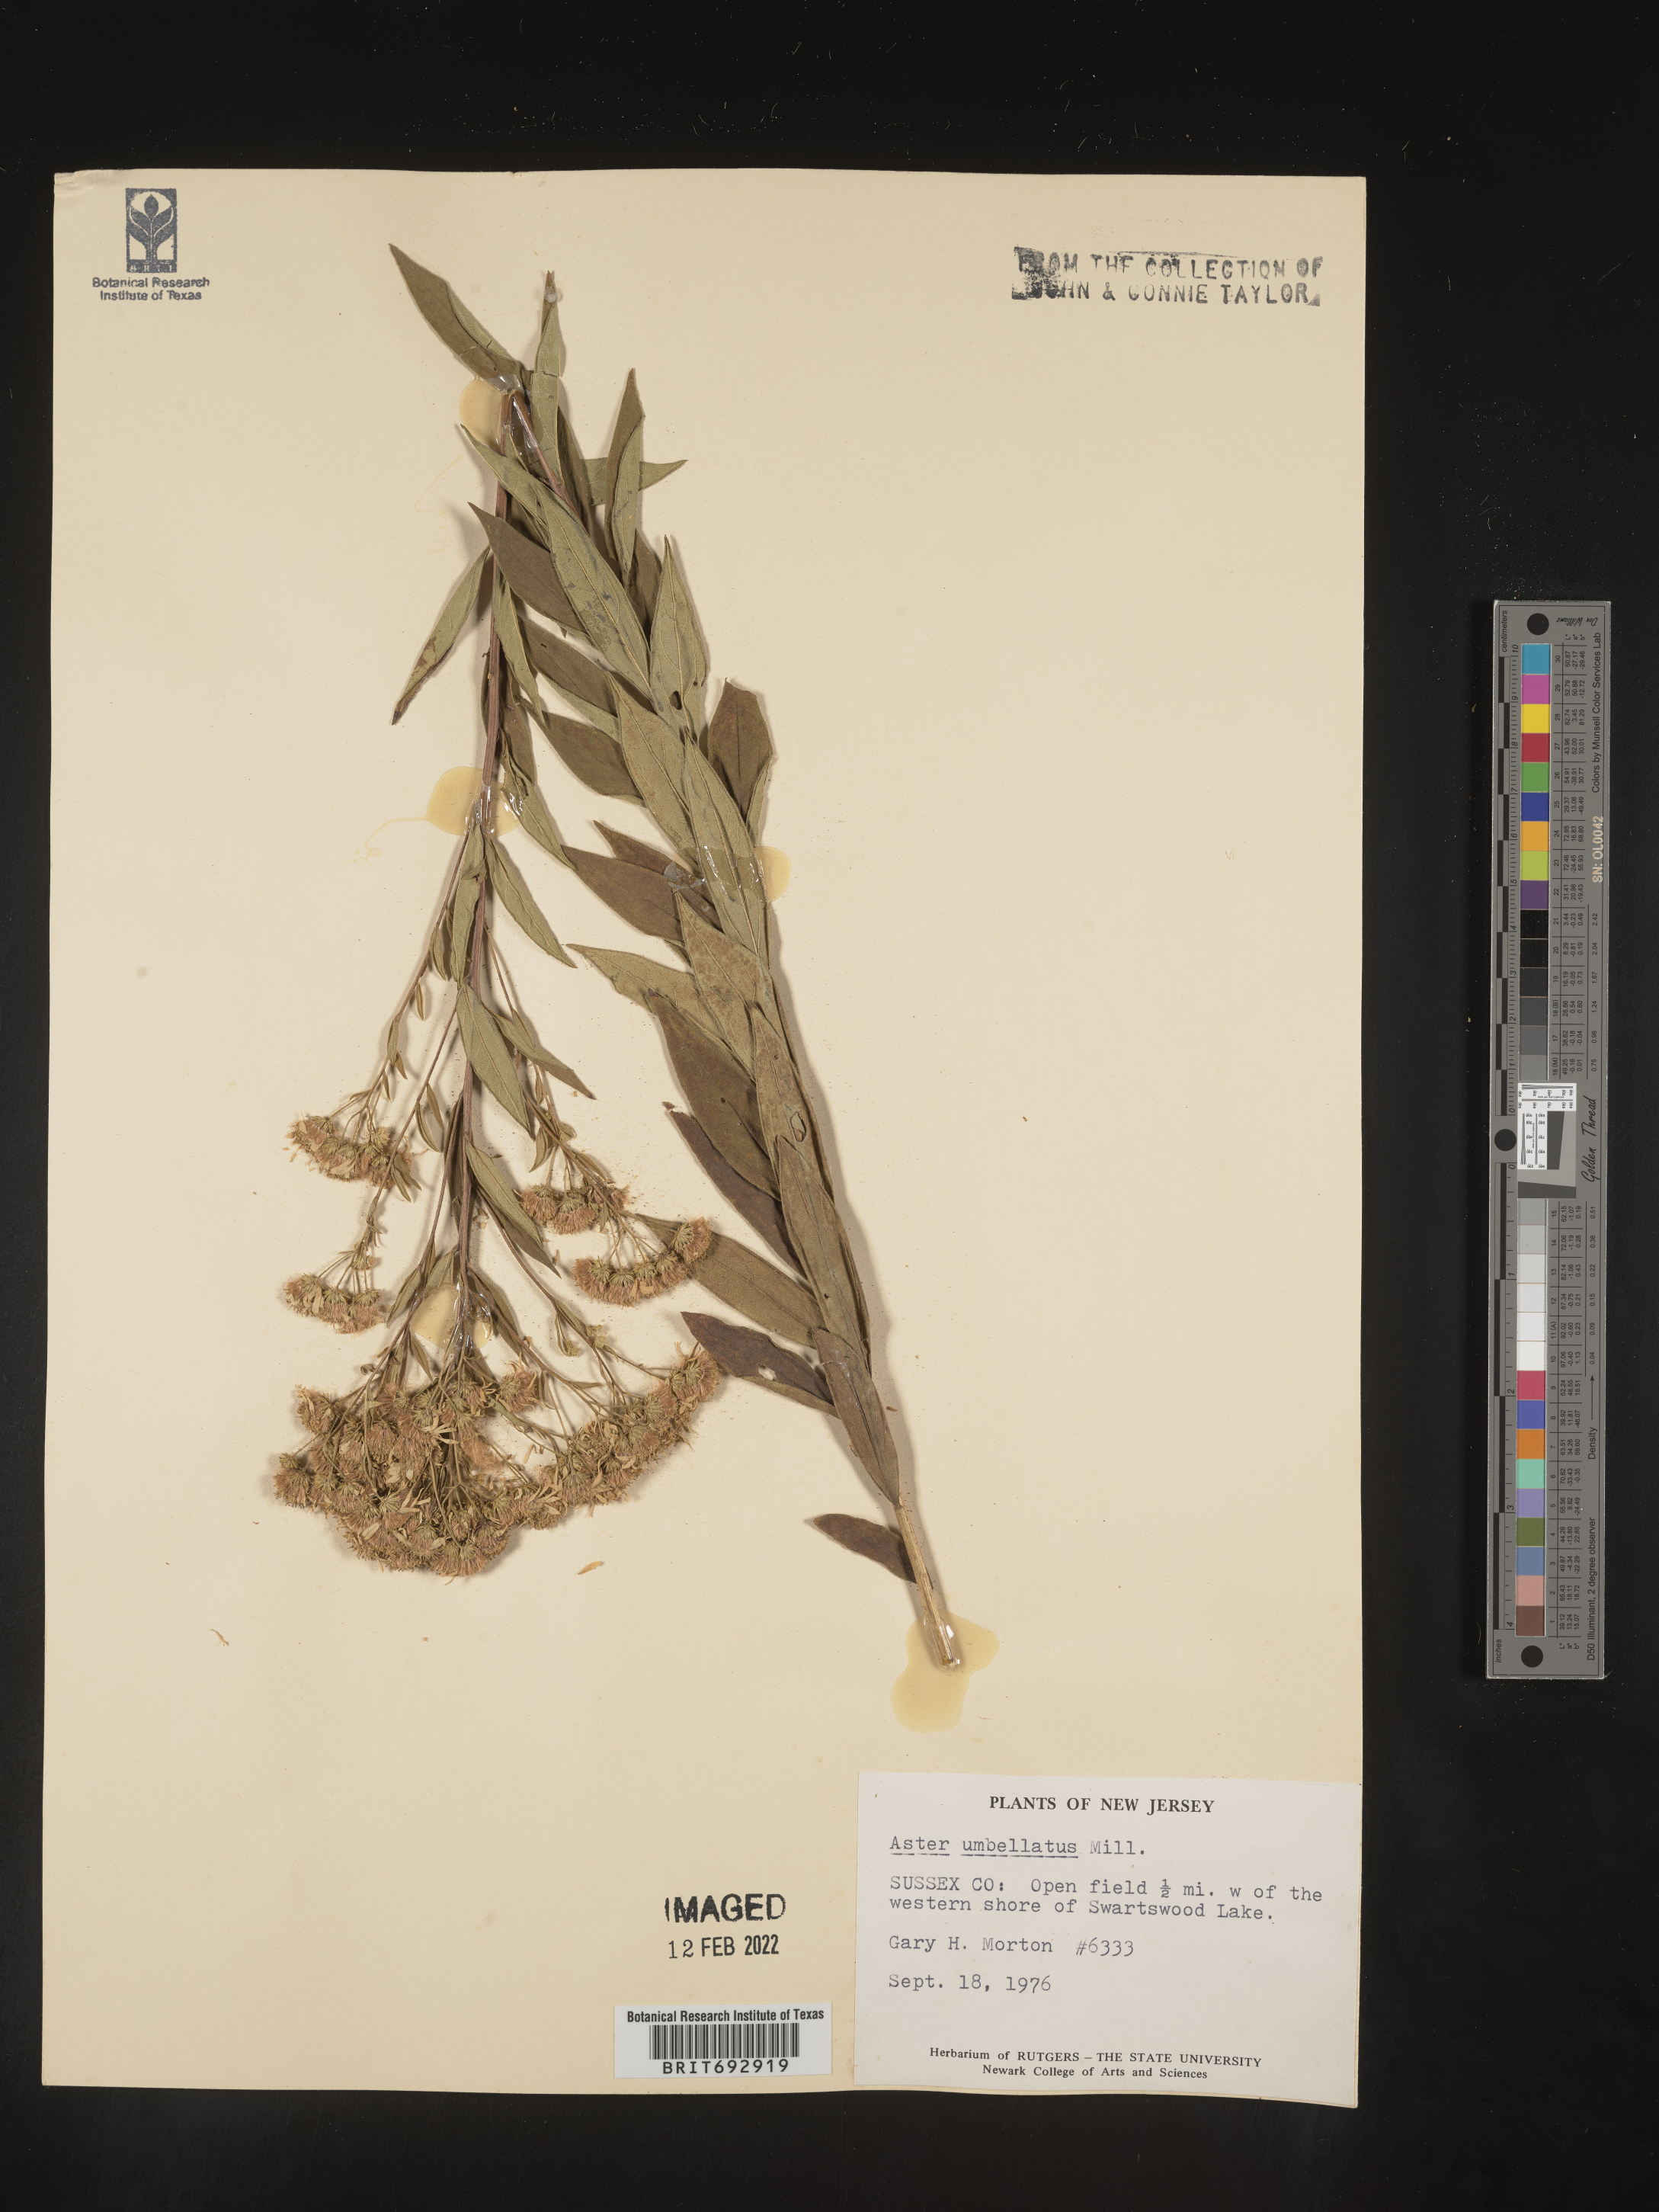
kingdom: Plantae
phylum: Tracheophyta
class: Magnoliopsida
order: Asterales
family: Asteraceae
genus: Doellingeria
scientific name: Doellingeria umbellata
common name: Flat-top white aster
